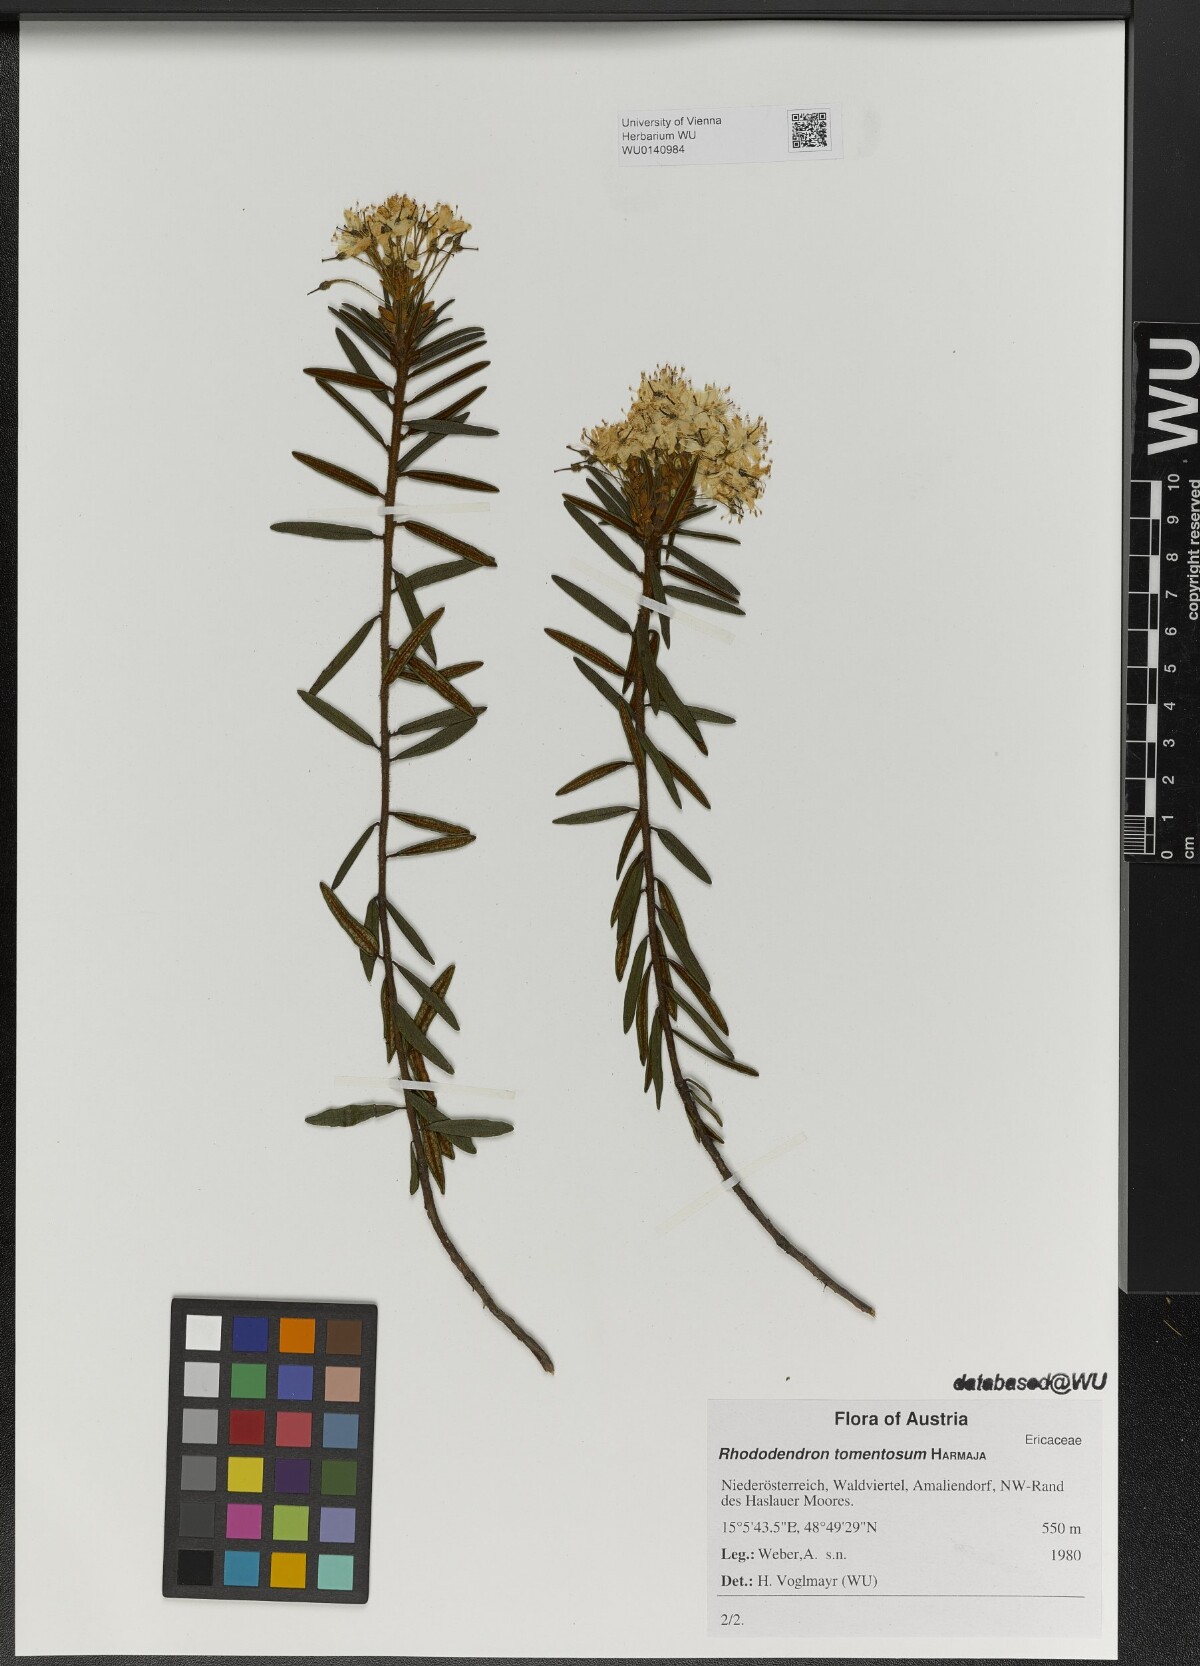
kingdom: Plantae
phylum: Tracheophyta
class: Magnoliopsida
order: Ericales
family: Ericaceae
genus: Rhododendron
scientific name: Rhododendron tomentosum
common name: Marsh labrador tea
